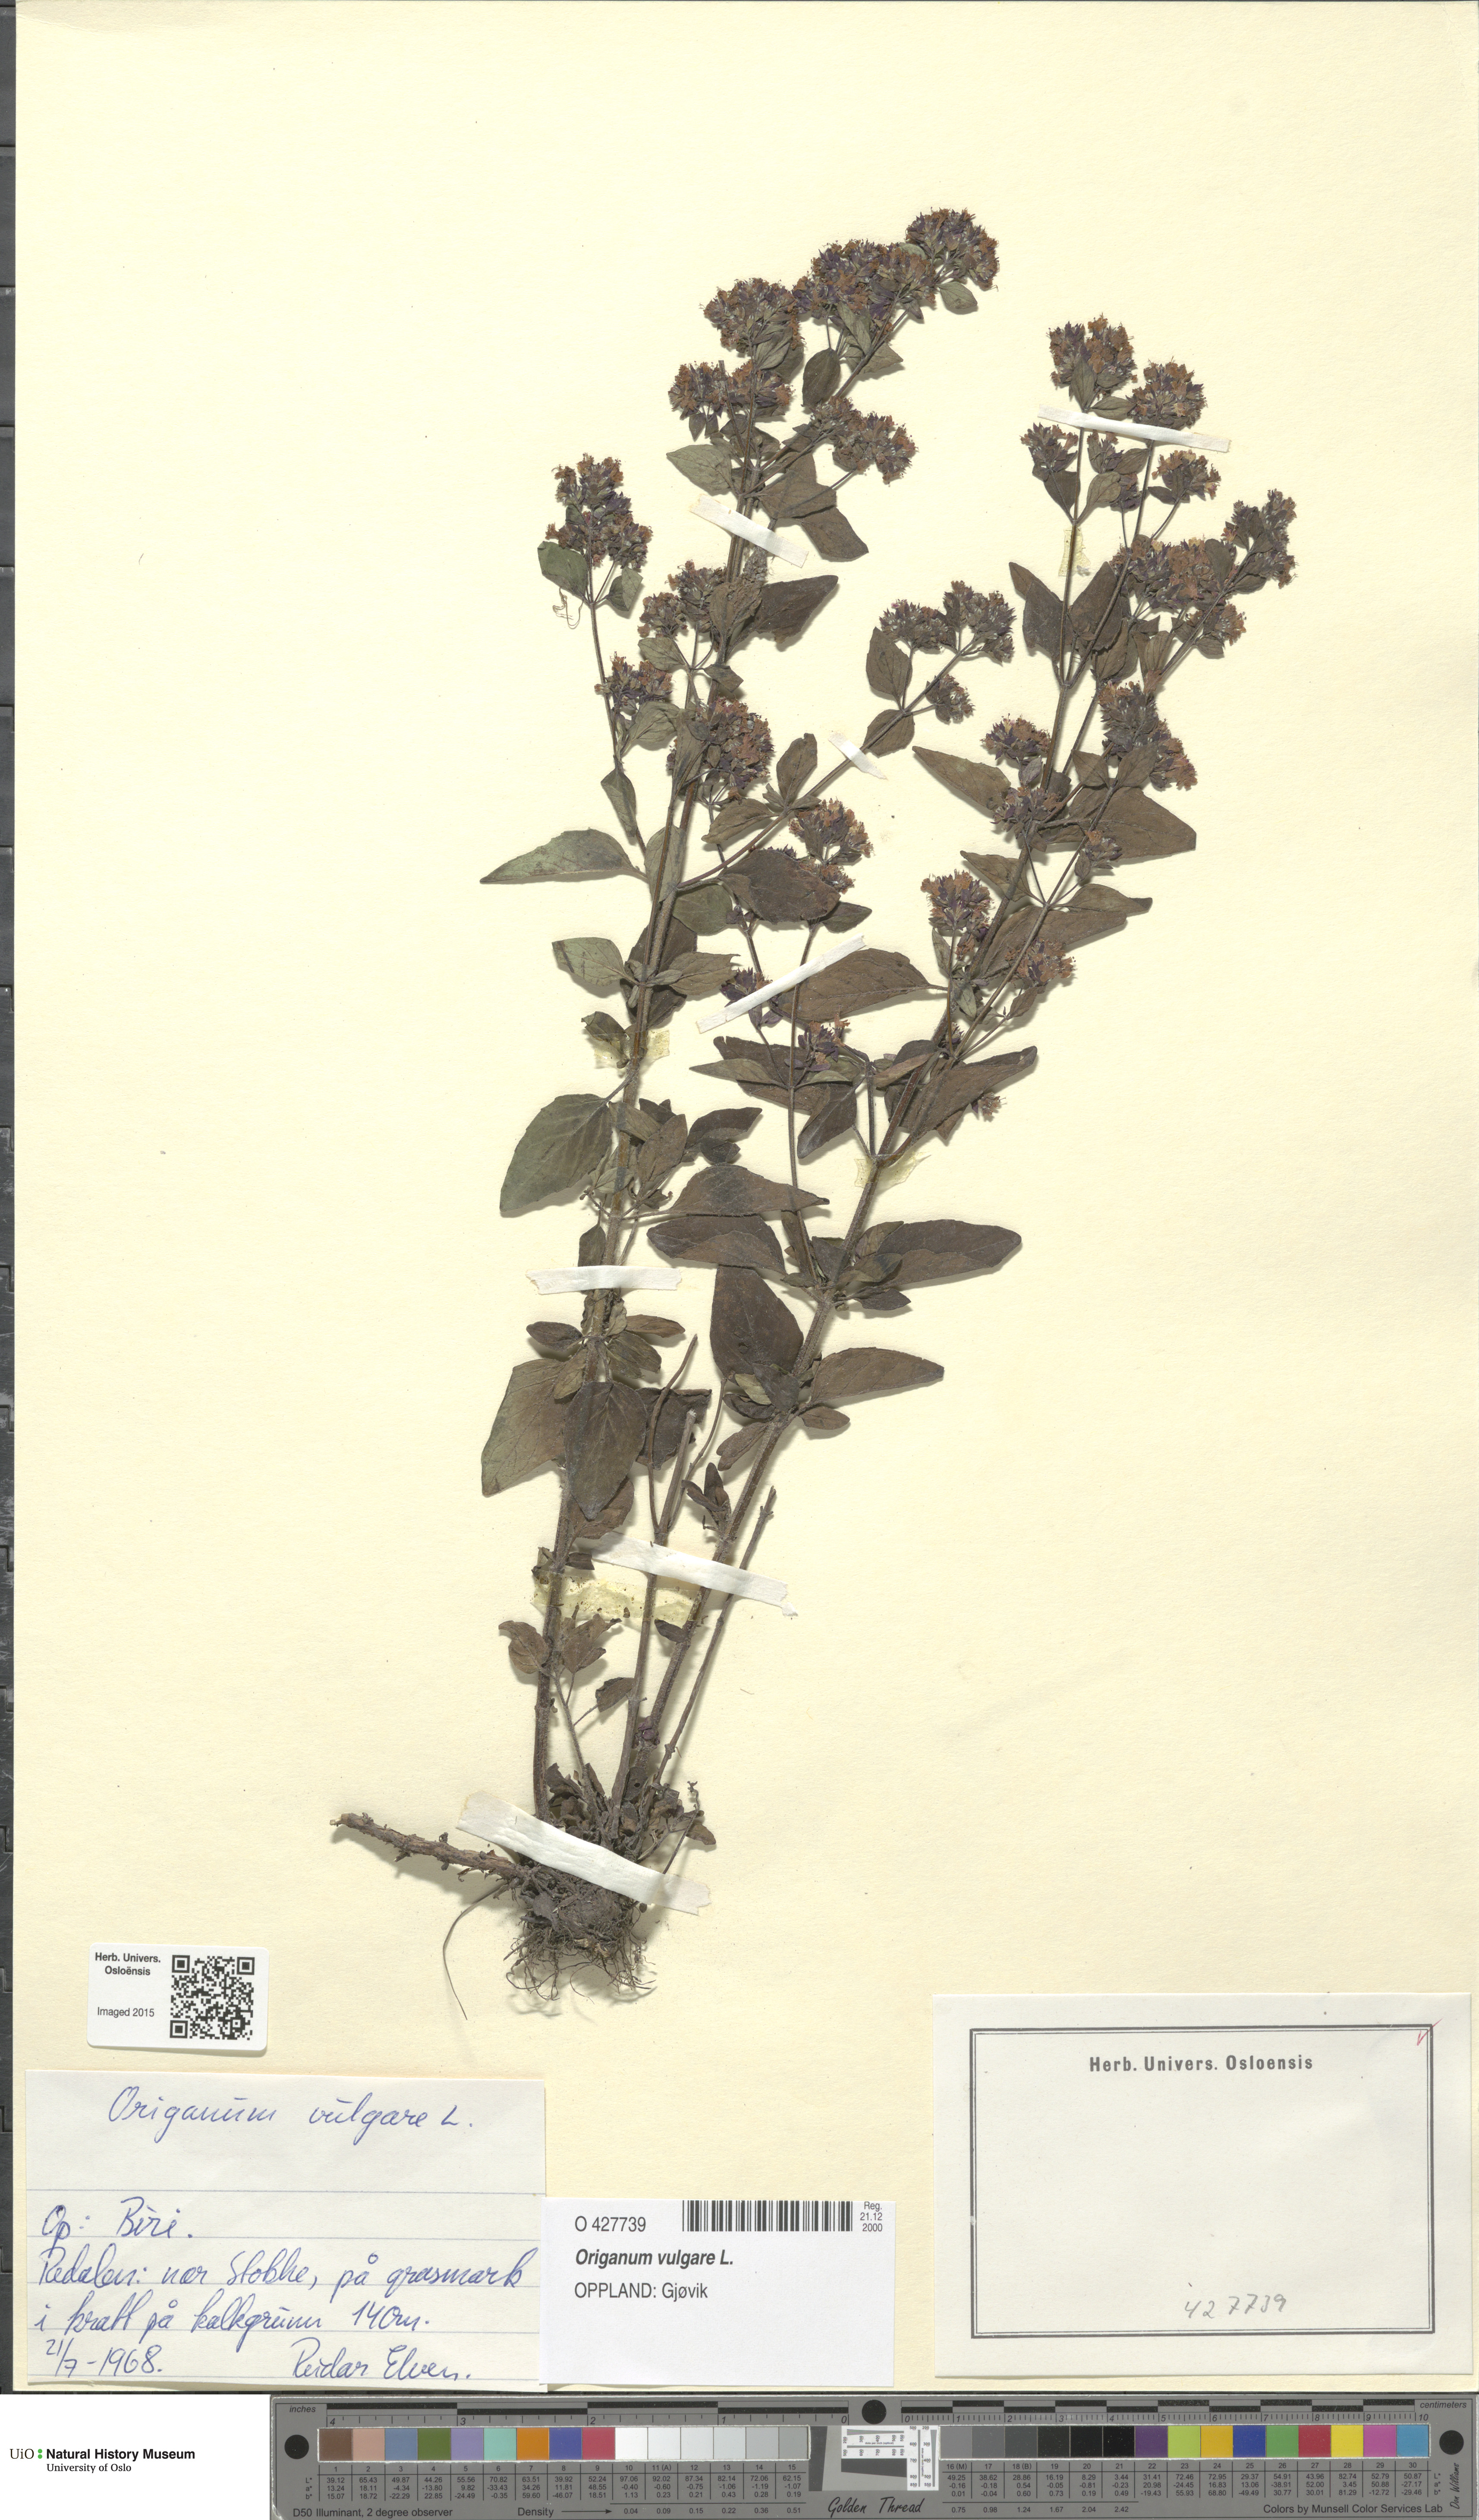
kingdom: Plantae
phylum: Tracheophyta
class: Magnoliopsida
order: Lamiales
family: Lamiaceae
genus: Origanum
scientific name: Origanum vulgare
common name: Wild marjoram
